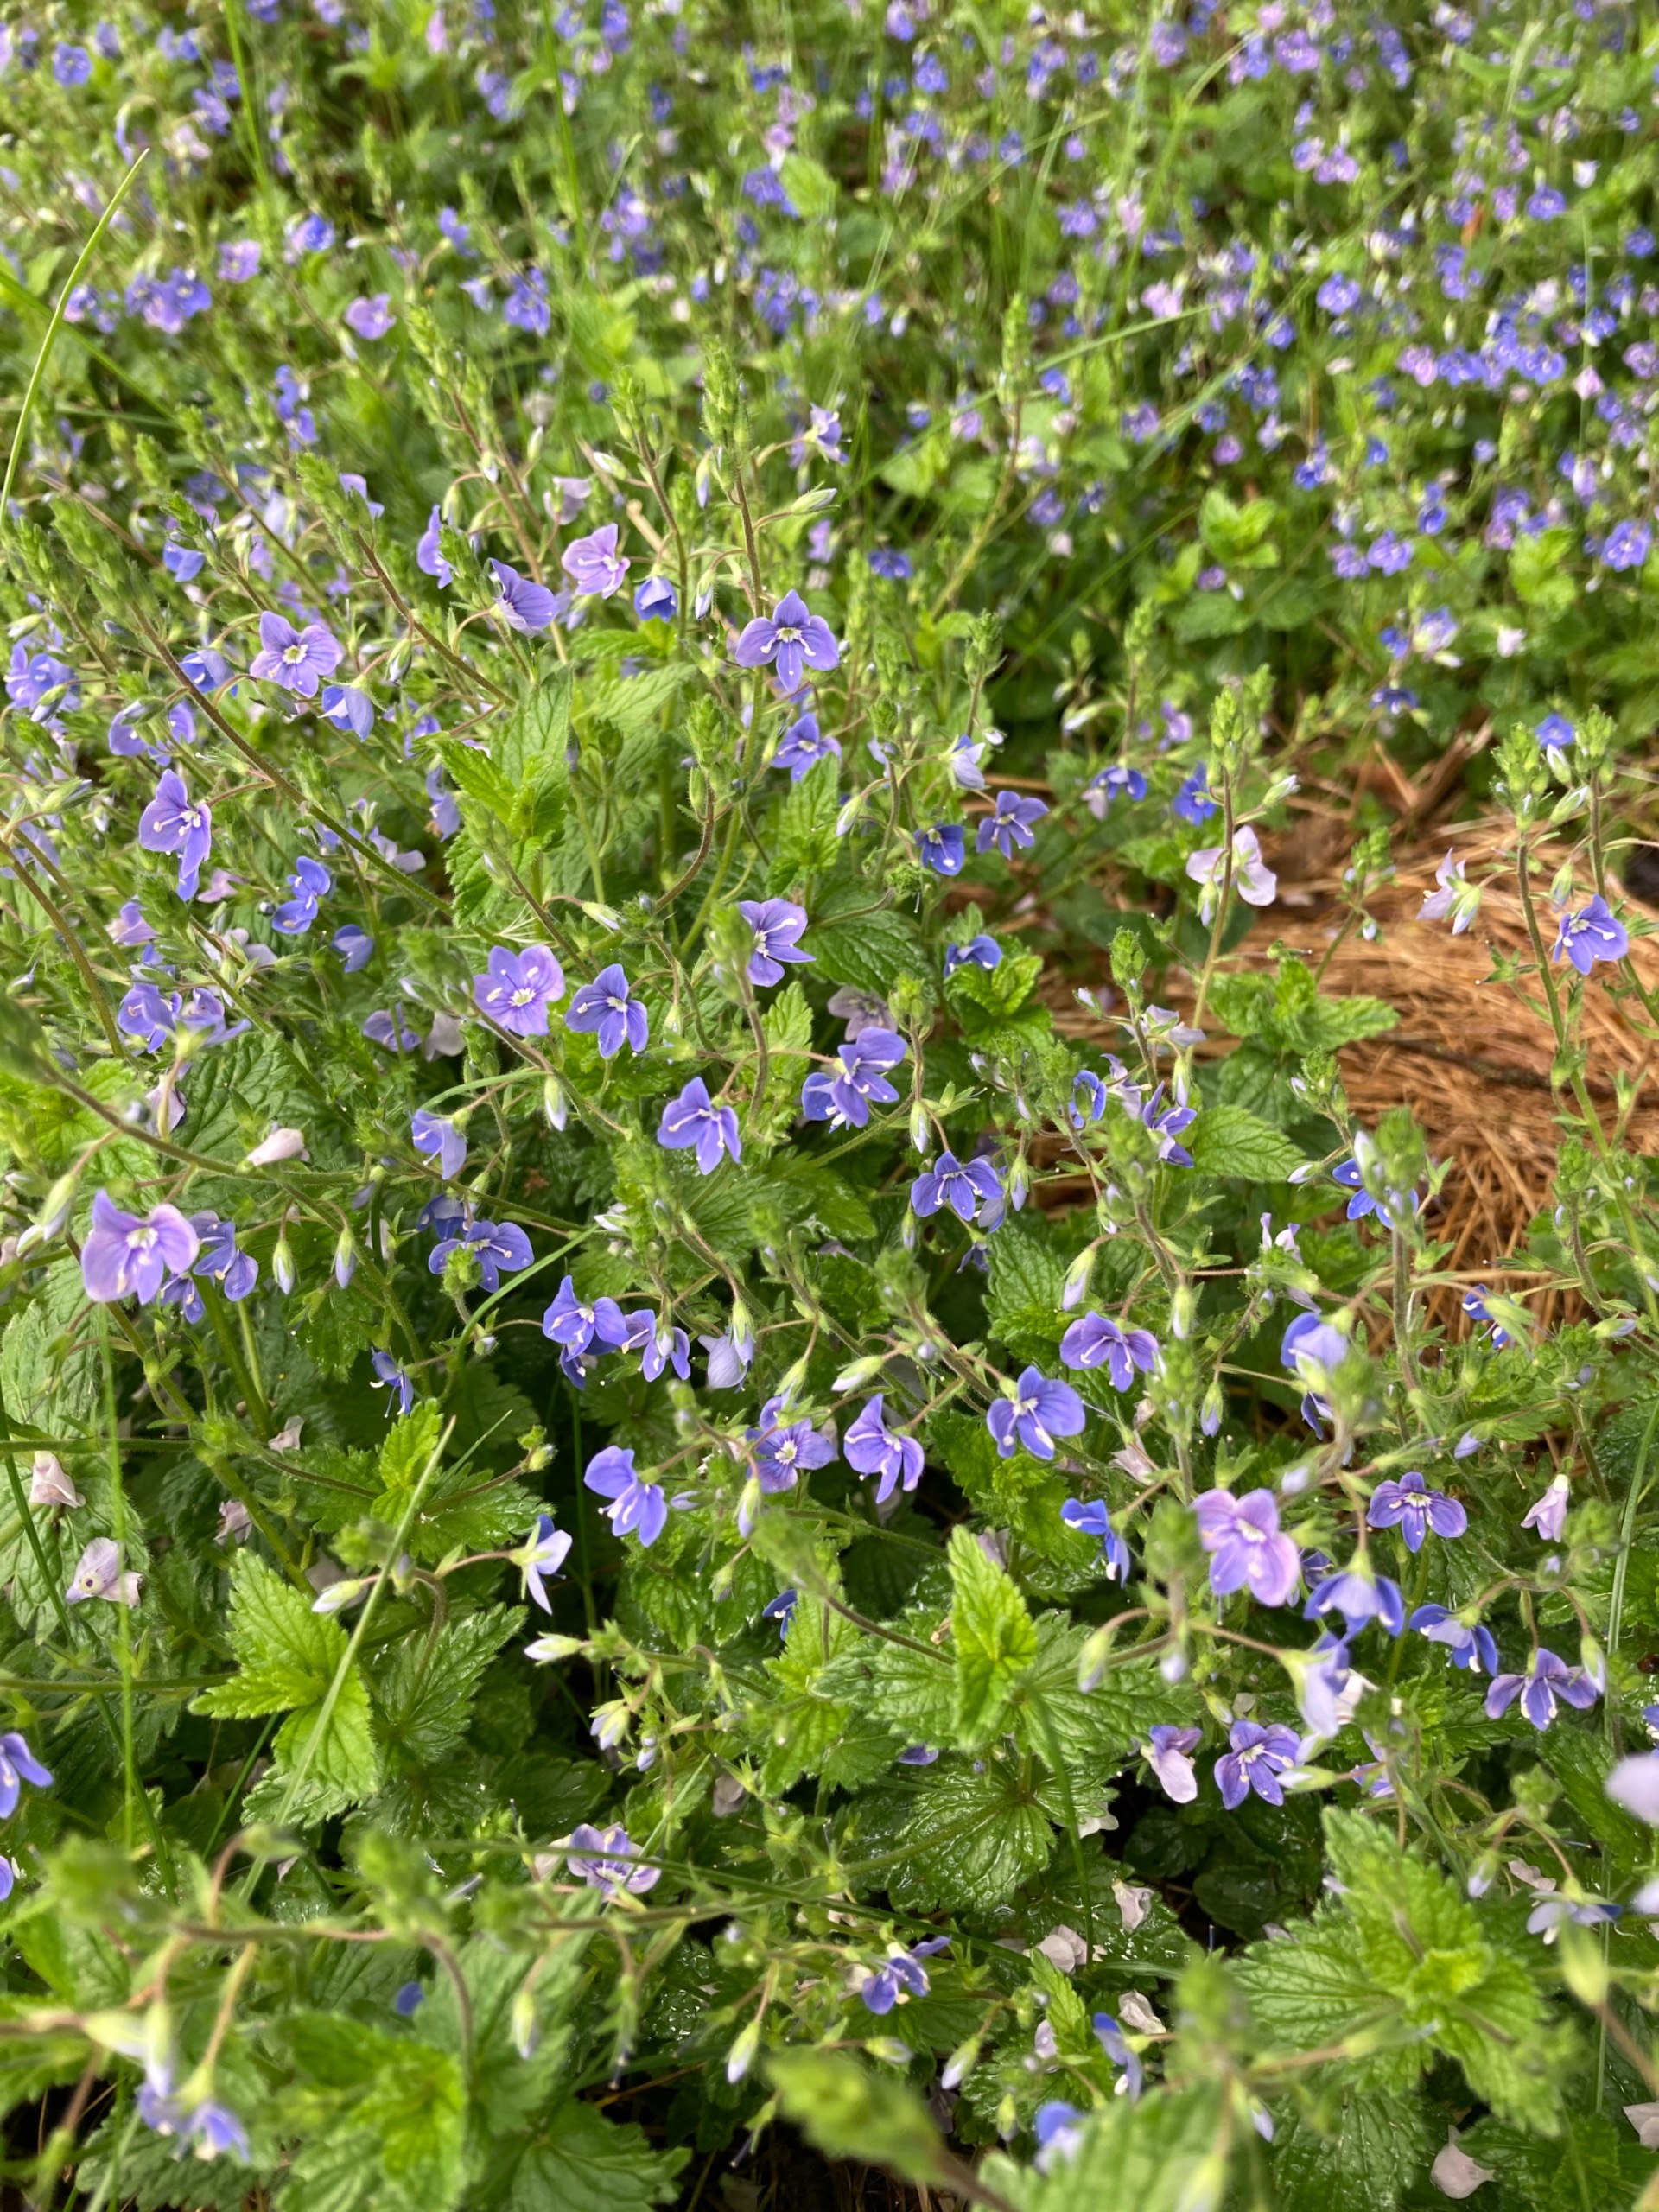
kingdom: Plantae
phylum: Tracheophyta
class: Magnoliopsida
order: Lamiales
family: Plantaginaceae
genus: Veronica
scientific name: Veronica chamaedrys
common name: Tveskægget ærenpris
